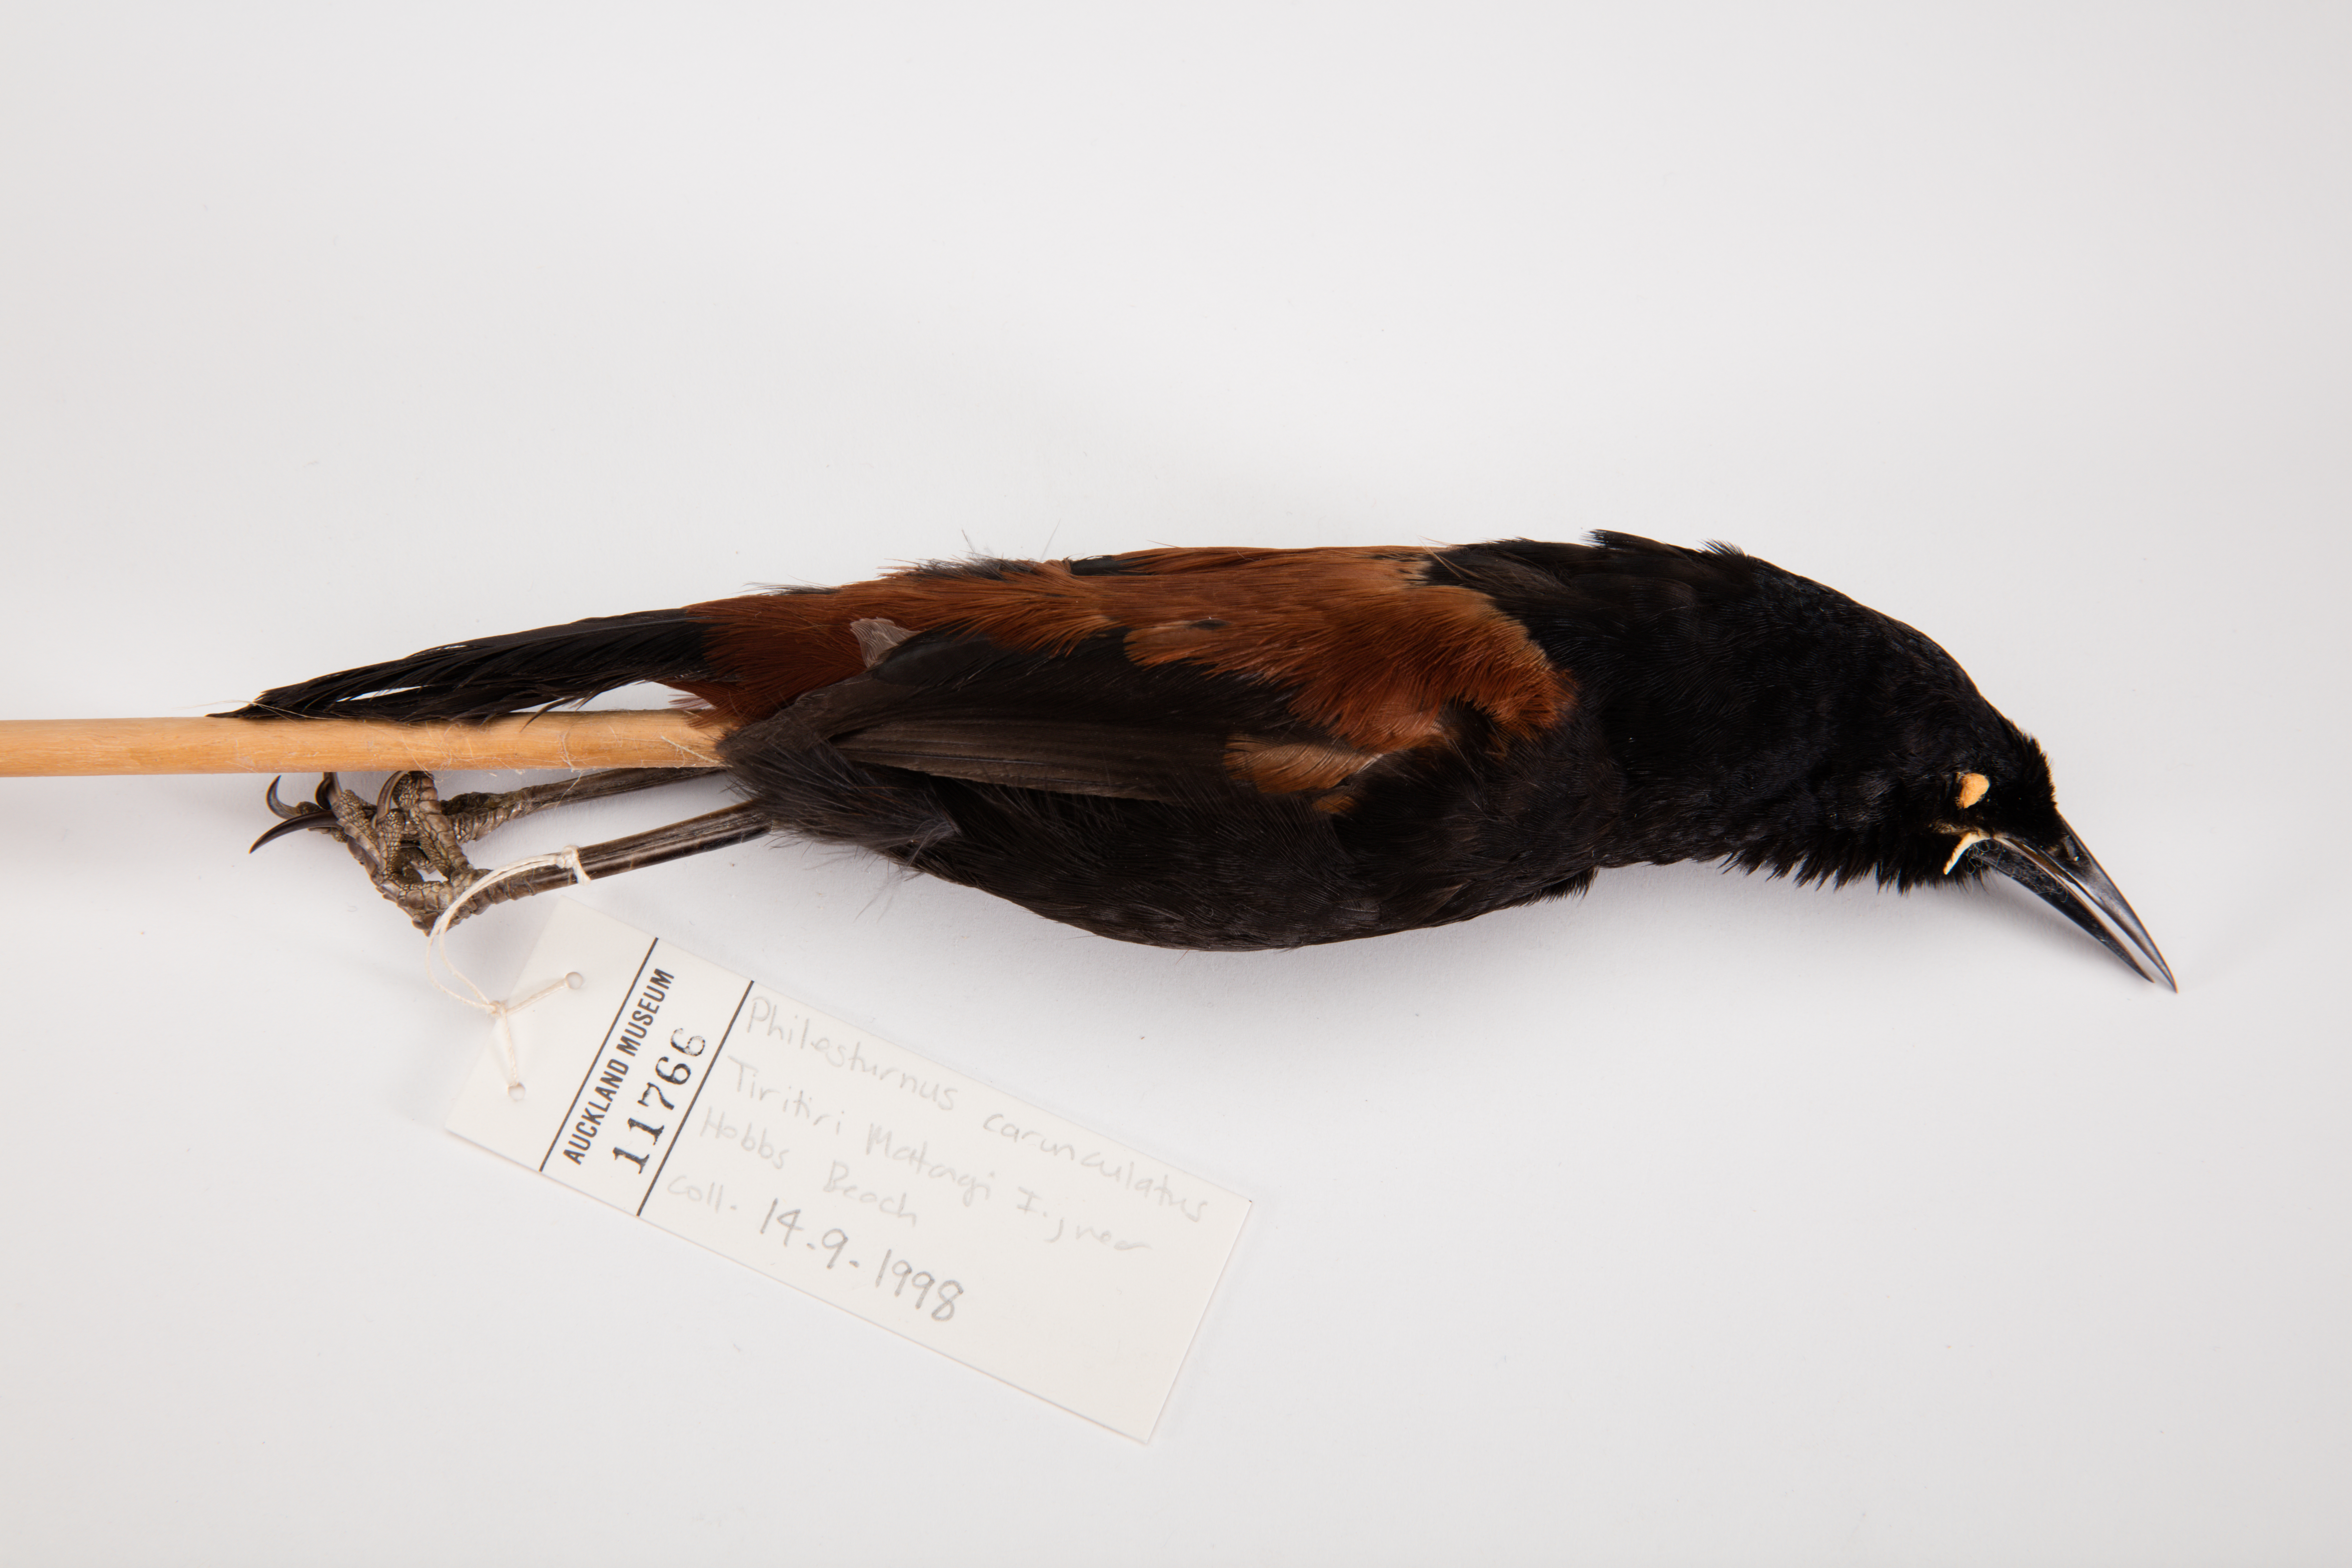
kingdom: Animalia
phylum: Chordata
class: Aves
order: Passeriformes
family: Callaeatidae
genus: Philesturnus
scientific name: Philesturnus carunculatus
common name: South island saddleback
